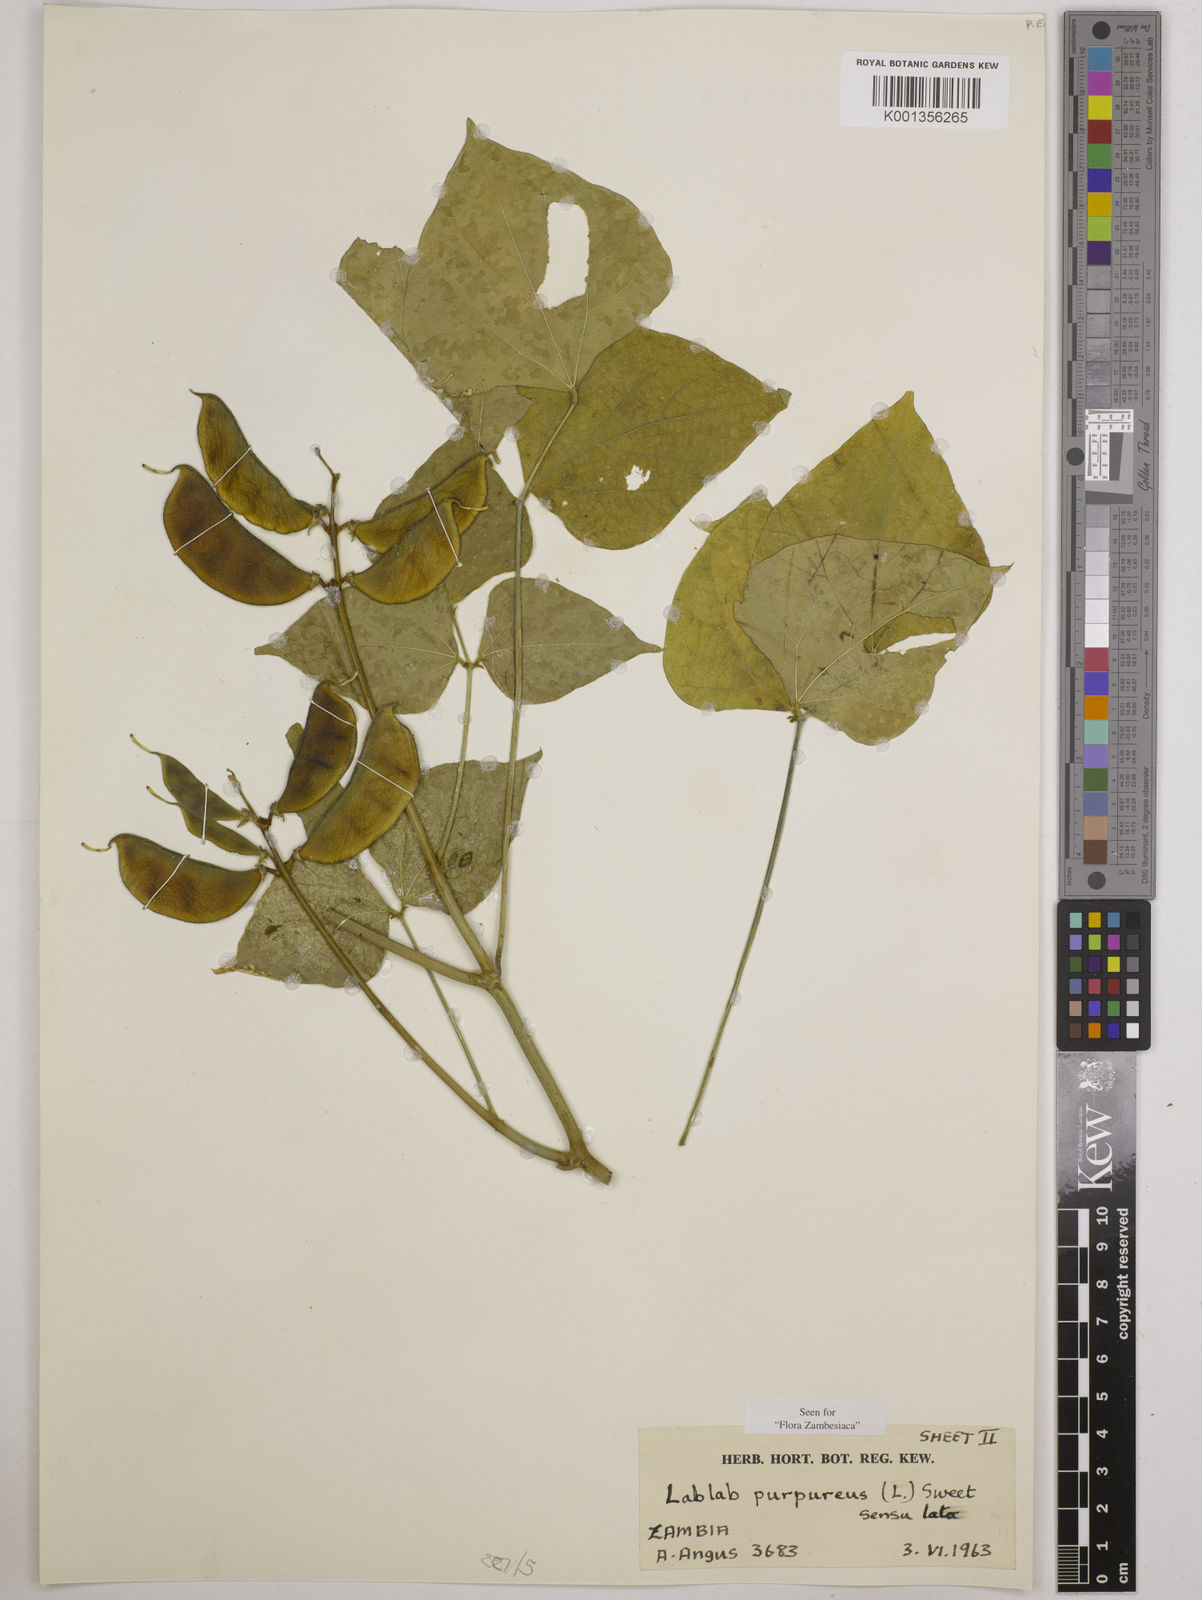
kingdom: Plantae
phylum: Tracheophyta
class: Magnoliopsida
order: Fabales
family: Fabaceae
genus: Lablab
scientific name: Lablab purpureus
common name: Lablab-bean
